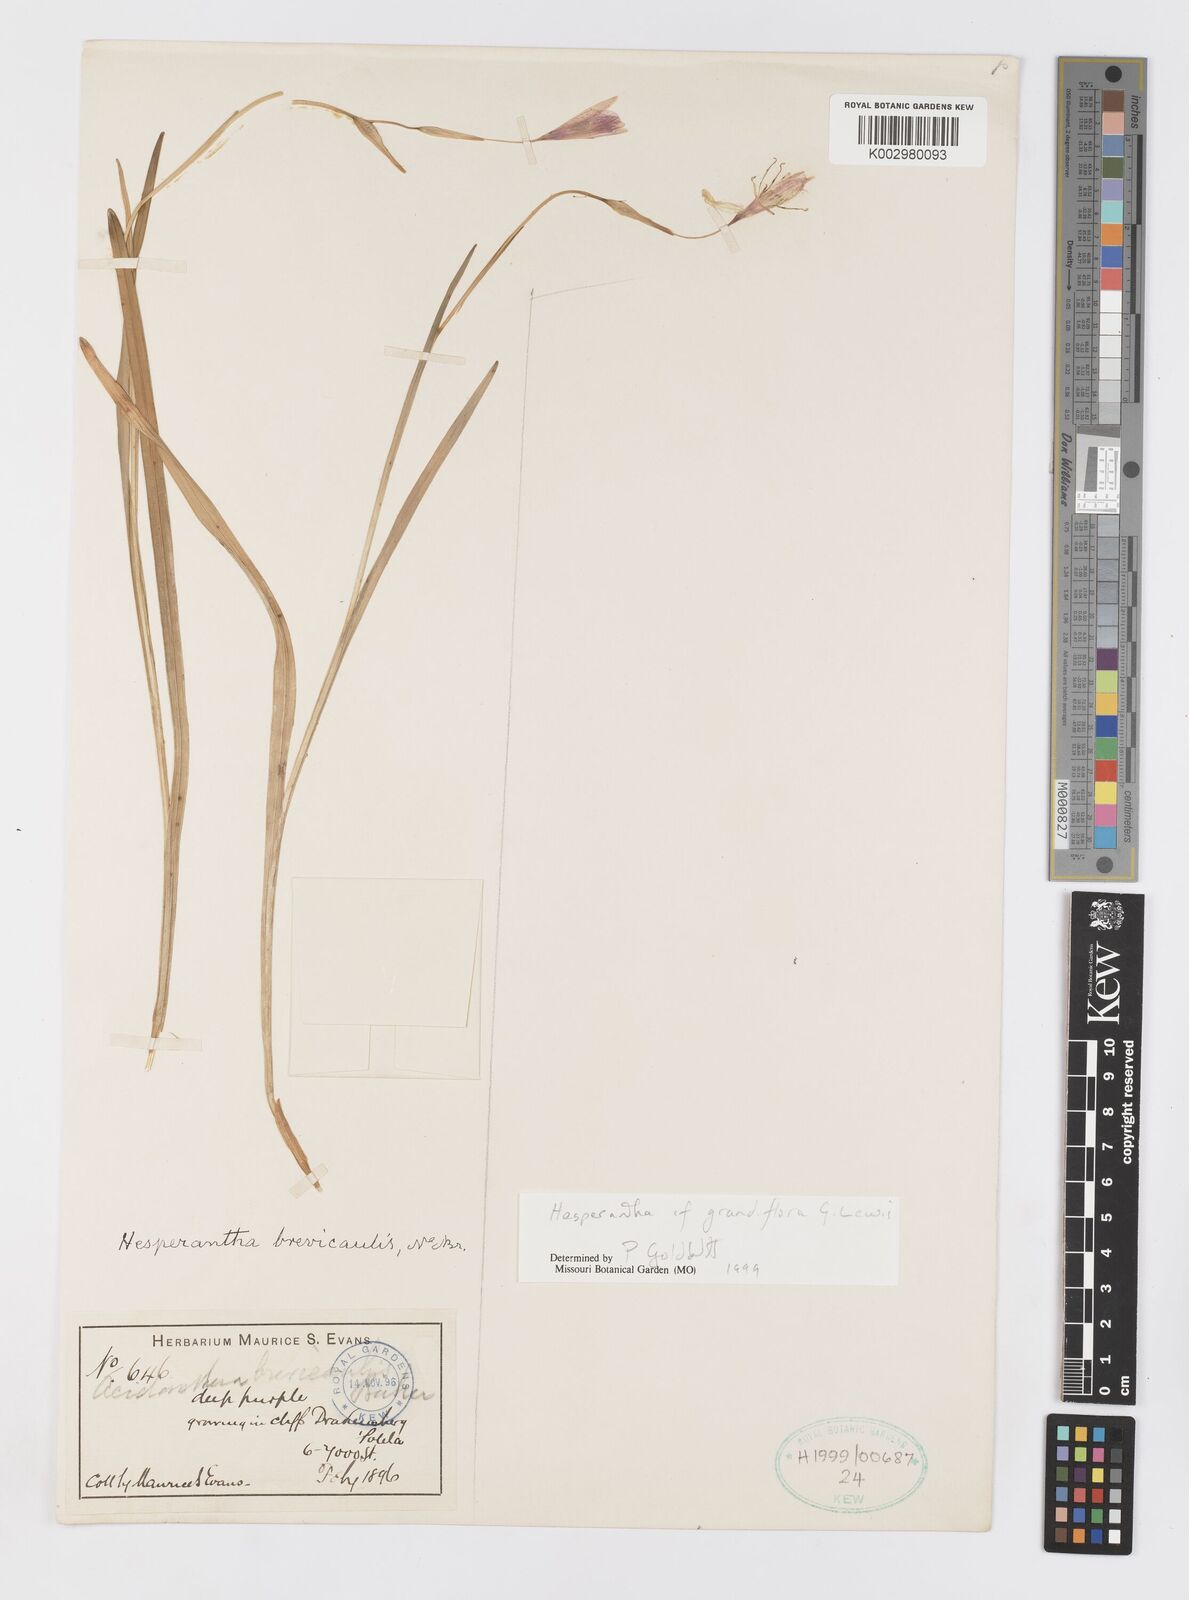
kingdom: Plantae
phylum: Tracheophyta
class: Liliopsida
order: Asparagales
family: Iridaceae
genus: Hesperantha
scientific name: Hesperantha grandiflora
